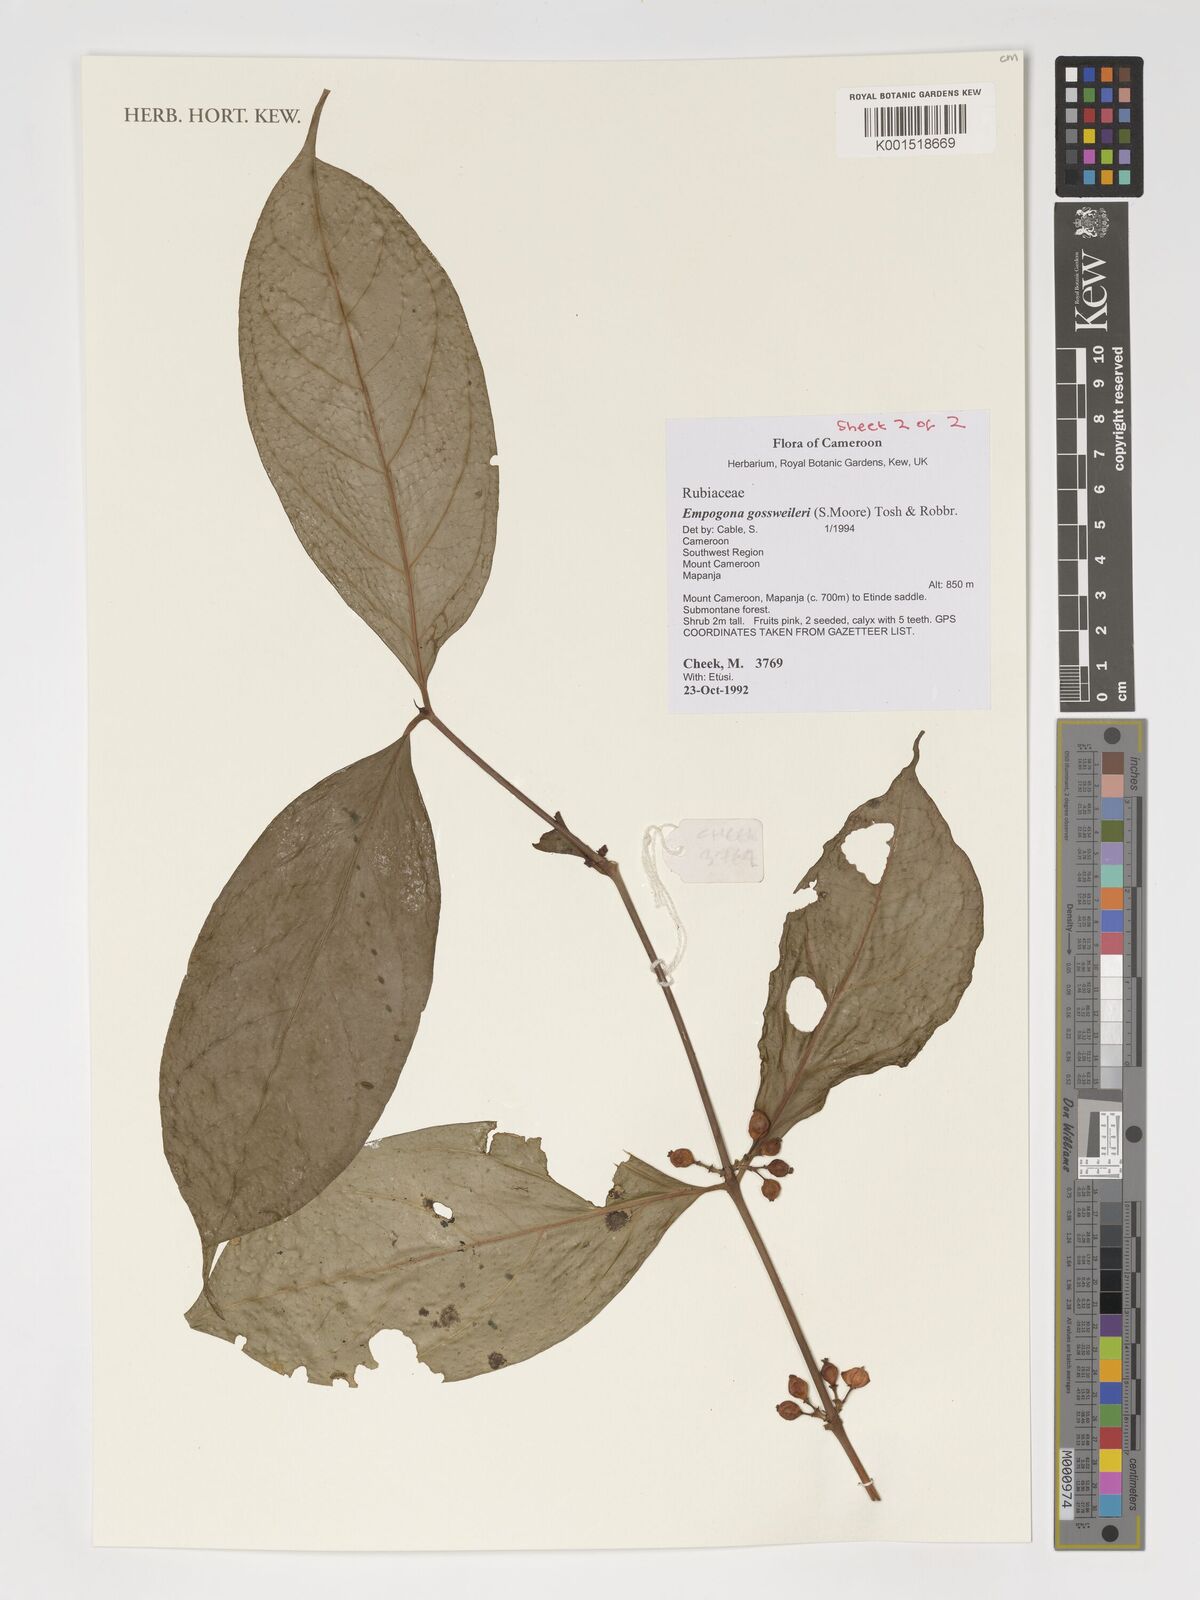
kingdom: Plantae
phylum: Tracheophyta
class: Magnoliopsida
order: Gentianales
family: Rubiaceae
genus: Empogona
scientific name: Empogona gossweileri
